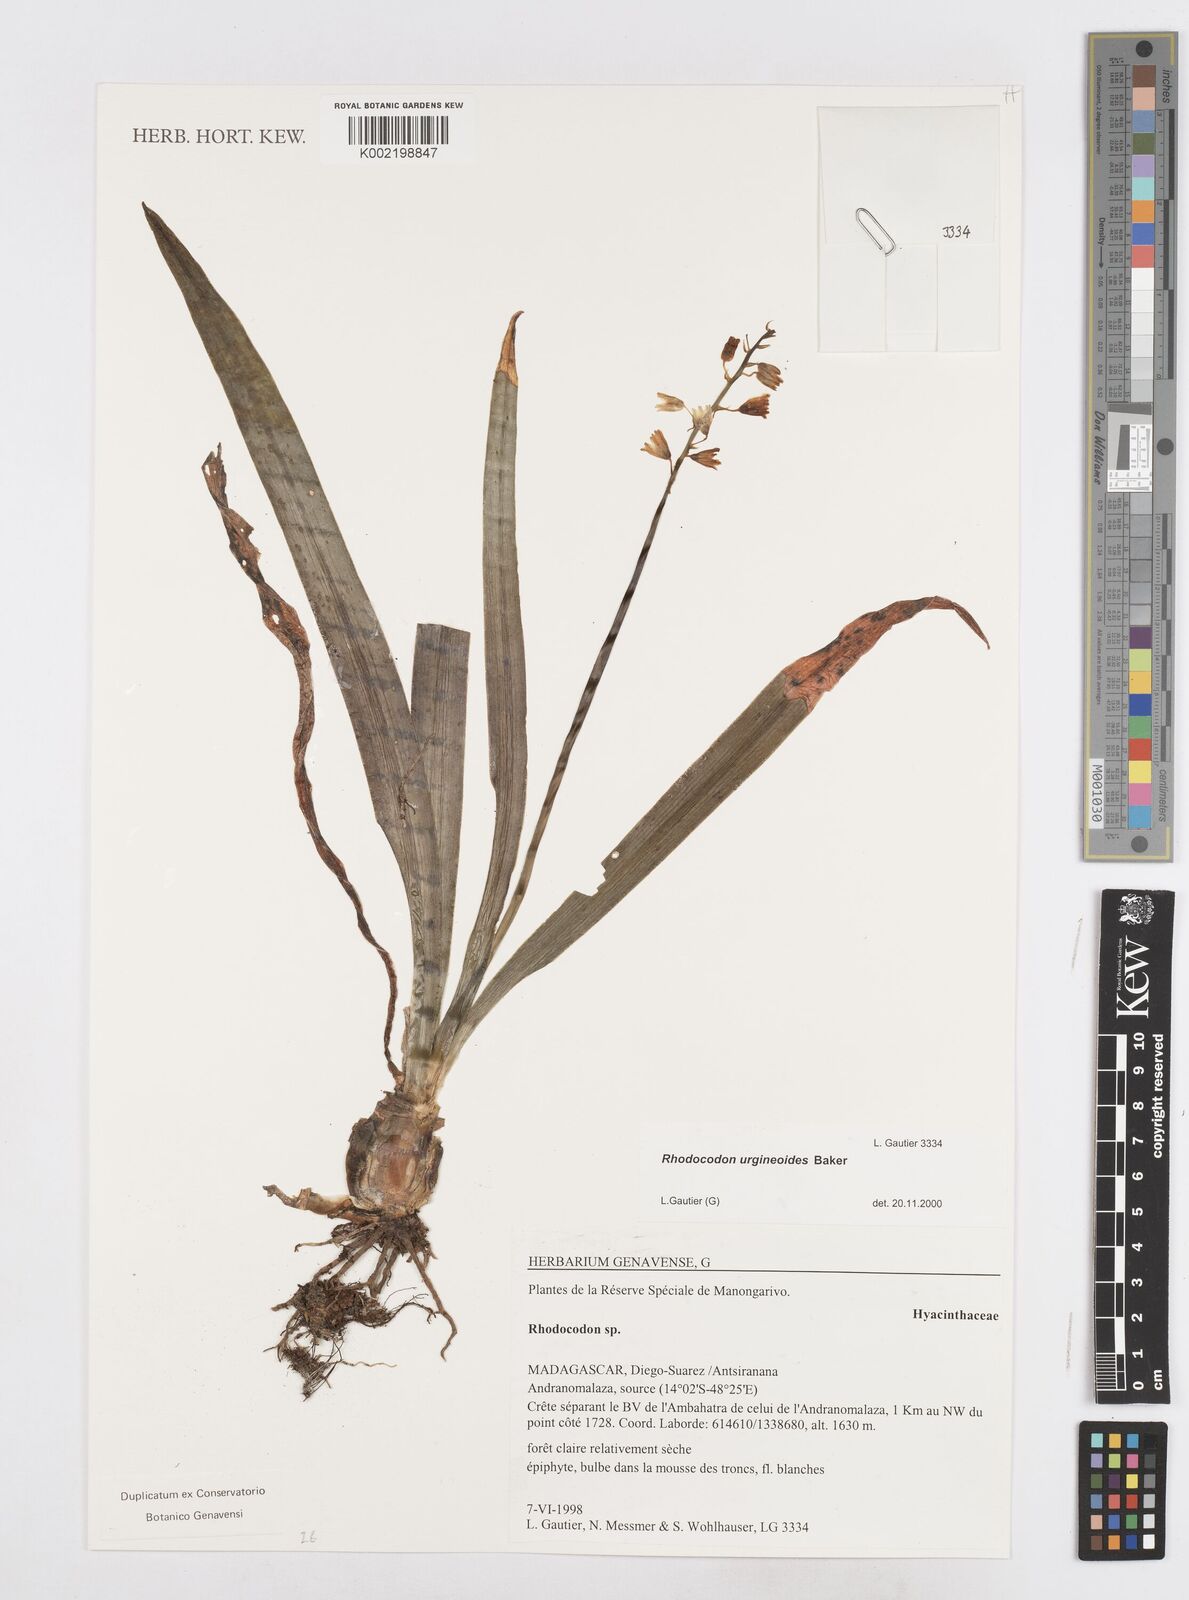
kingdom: Plantae
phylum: Tracheophyta
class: Liliopsida
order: Asparagales
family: Asparagaceae
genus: Drimia
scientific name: Drimia urgineoides
